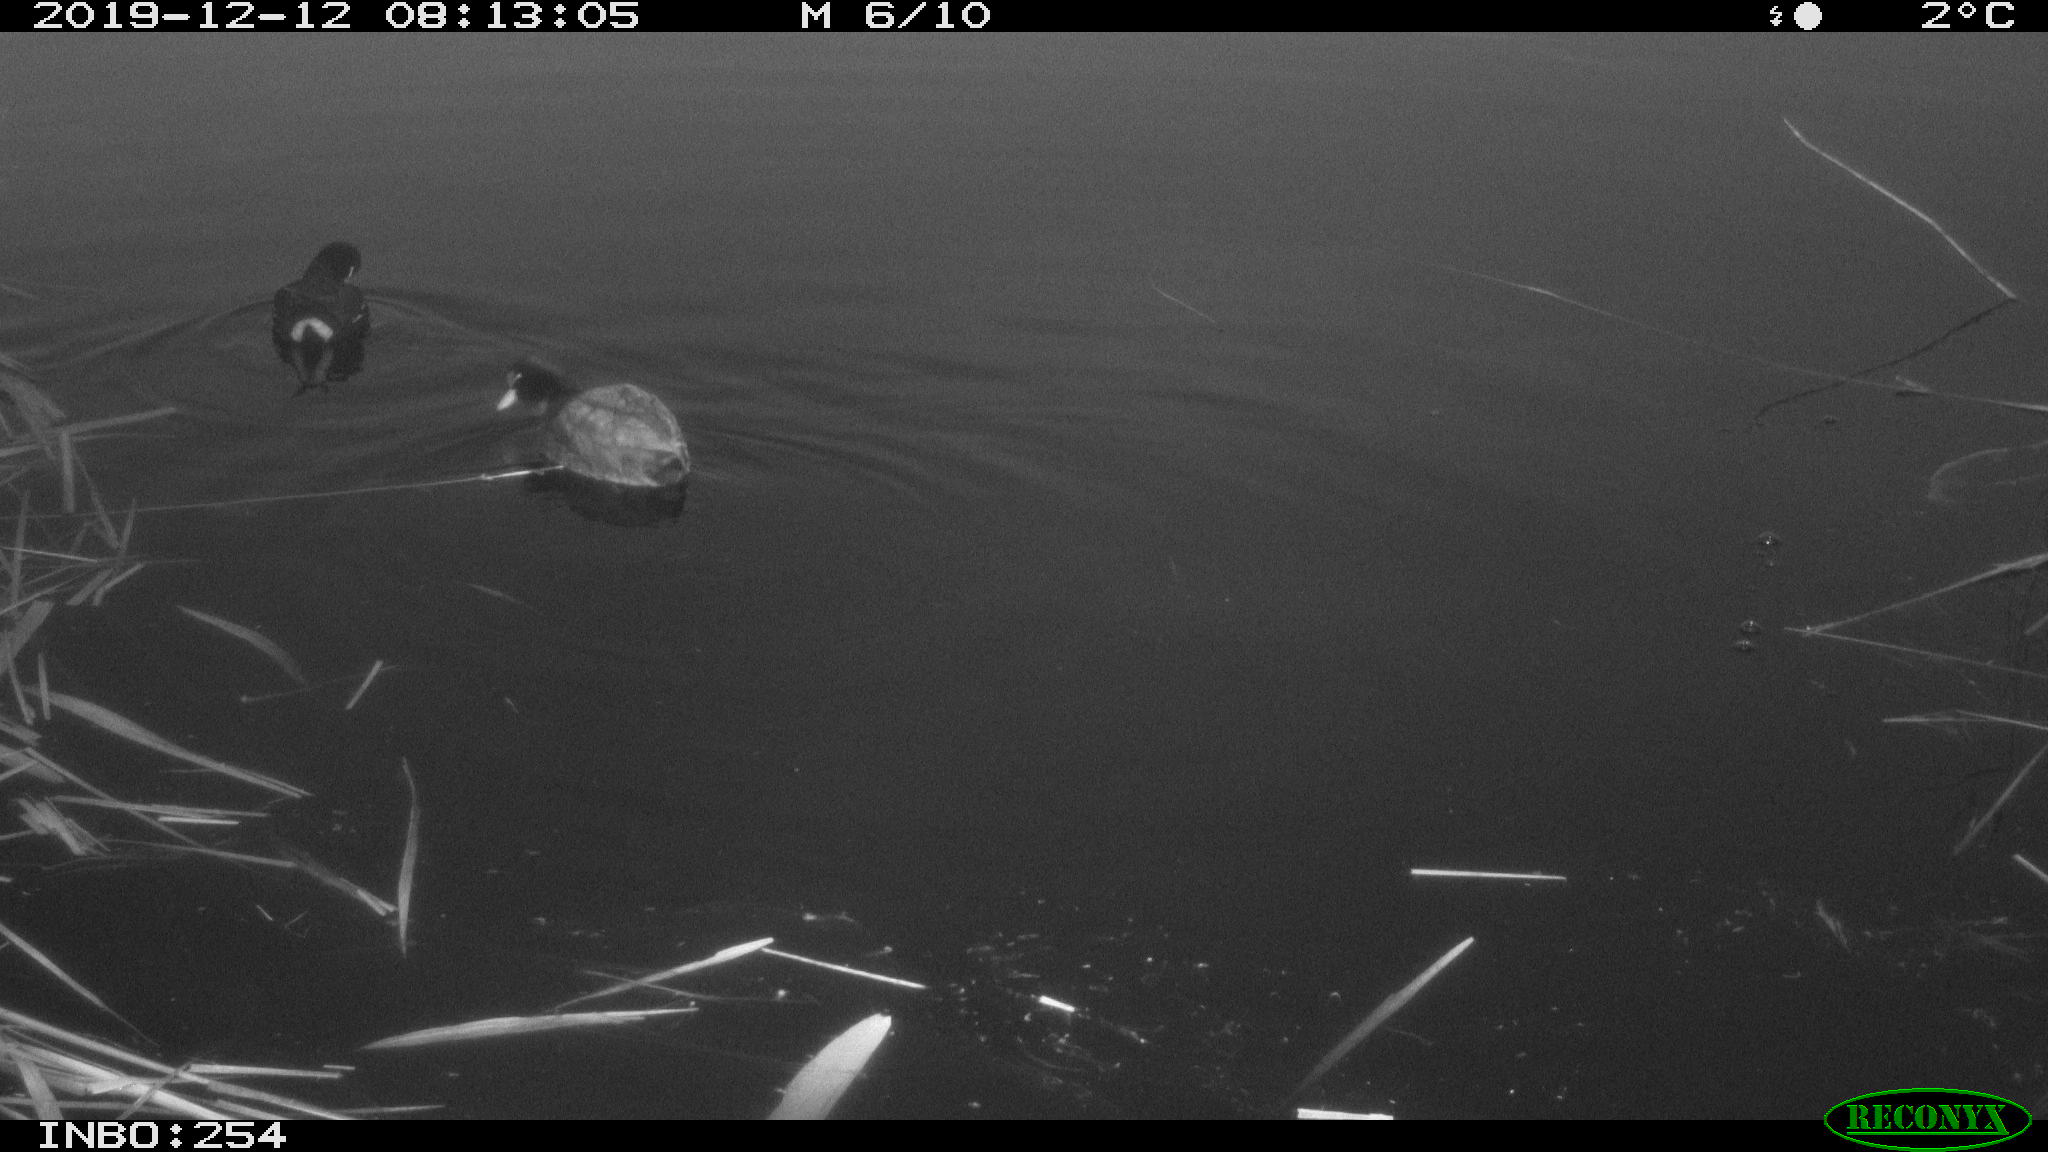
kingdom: Animalia
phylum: Chordata
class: Aves
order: Gruiformes
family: Rallidae
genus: Fulica
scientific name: Fulica atra
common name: Eurasian coot
